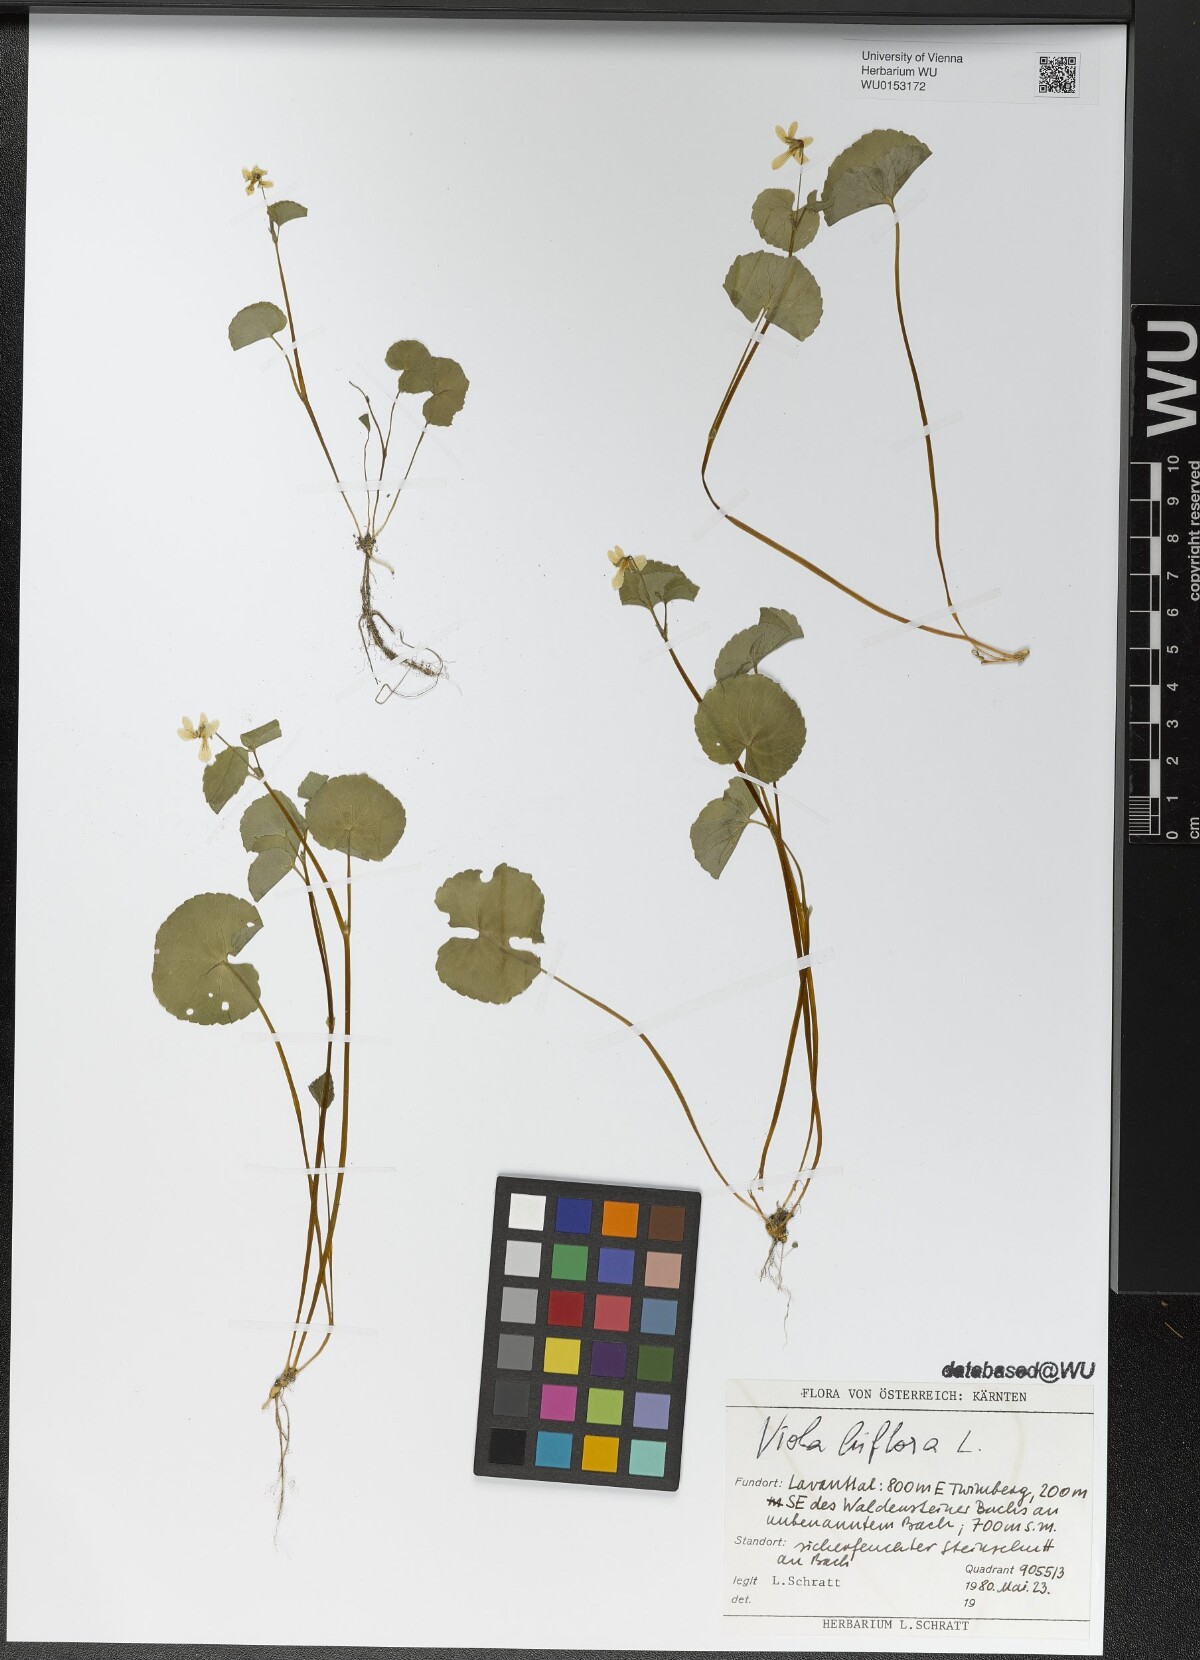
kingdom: Plantae
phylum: Tracheophyta
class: Magnoliopsida
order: Malpighiales
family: Violaceae
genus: Viola
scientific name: Viola biflora
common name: Alpine yellow violet
